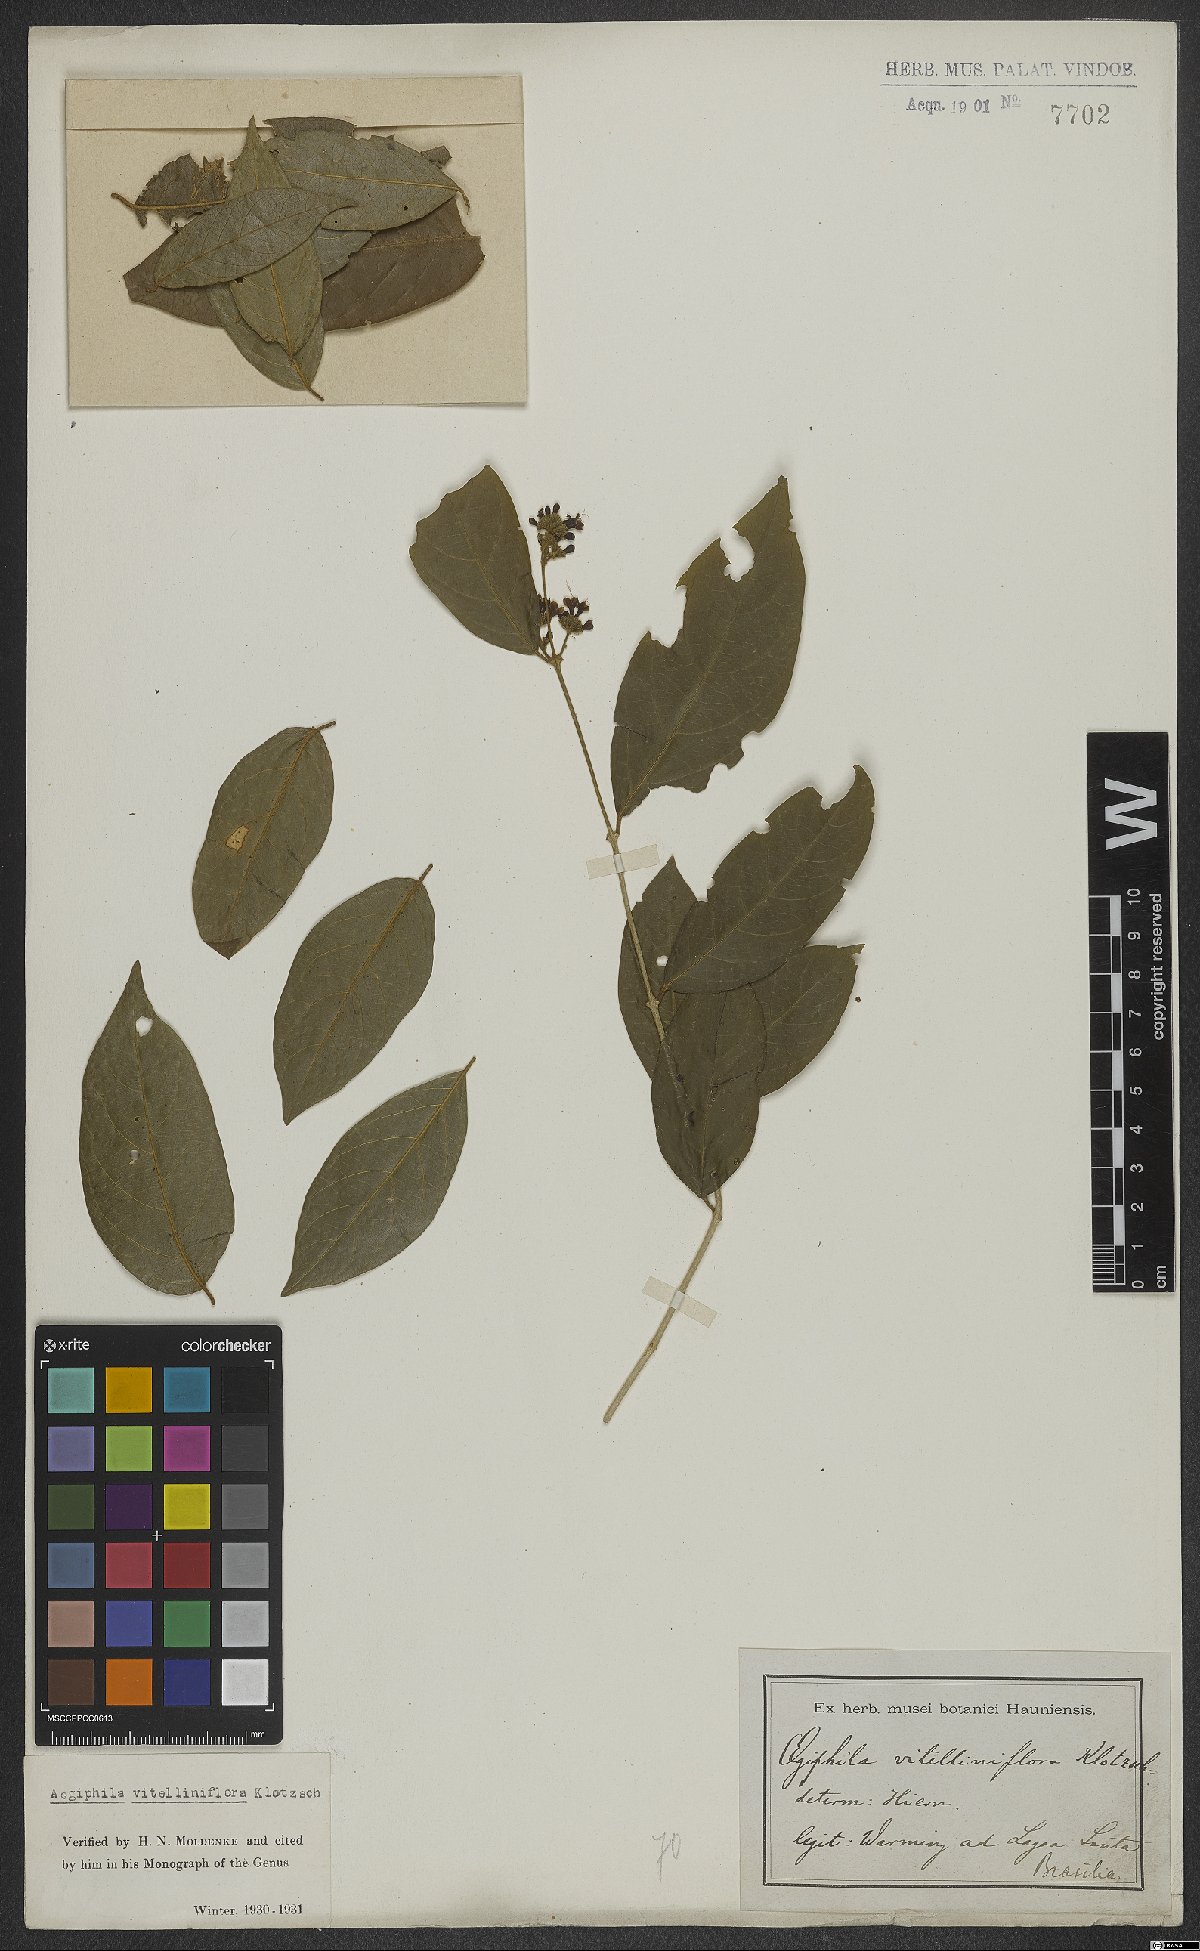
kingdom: Plantae
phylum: Tracheophyta
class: Magnoliopsida
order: Lamiales
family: Lamiaceae
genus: Aegiphila
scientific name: Aegiphila vitelliniflora
